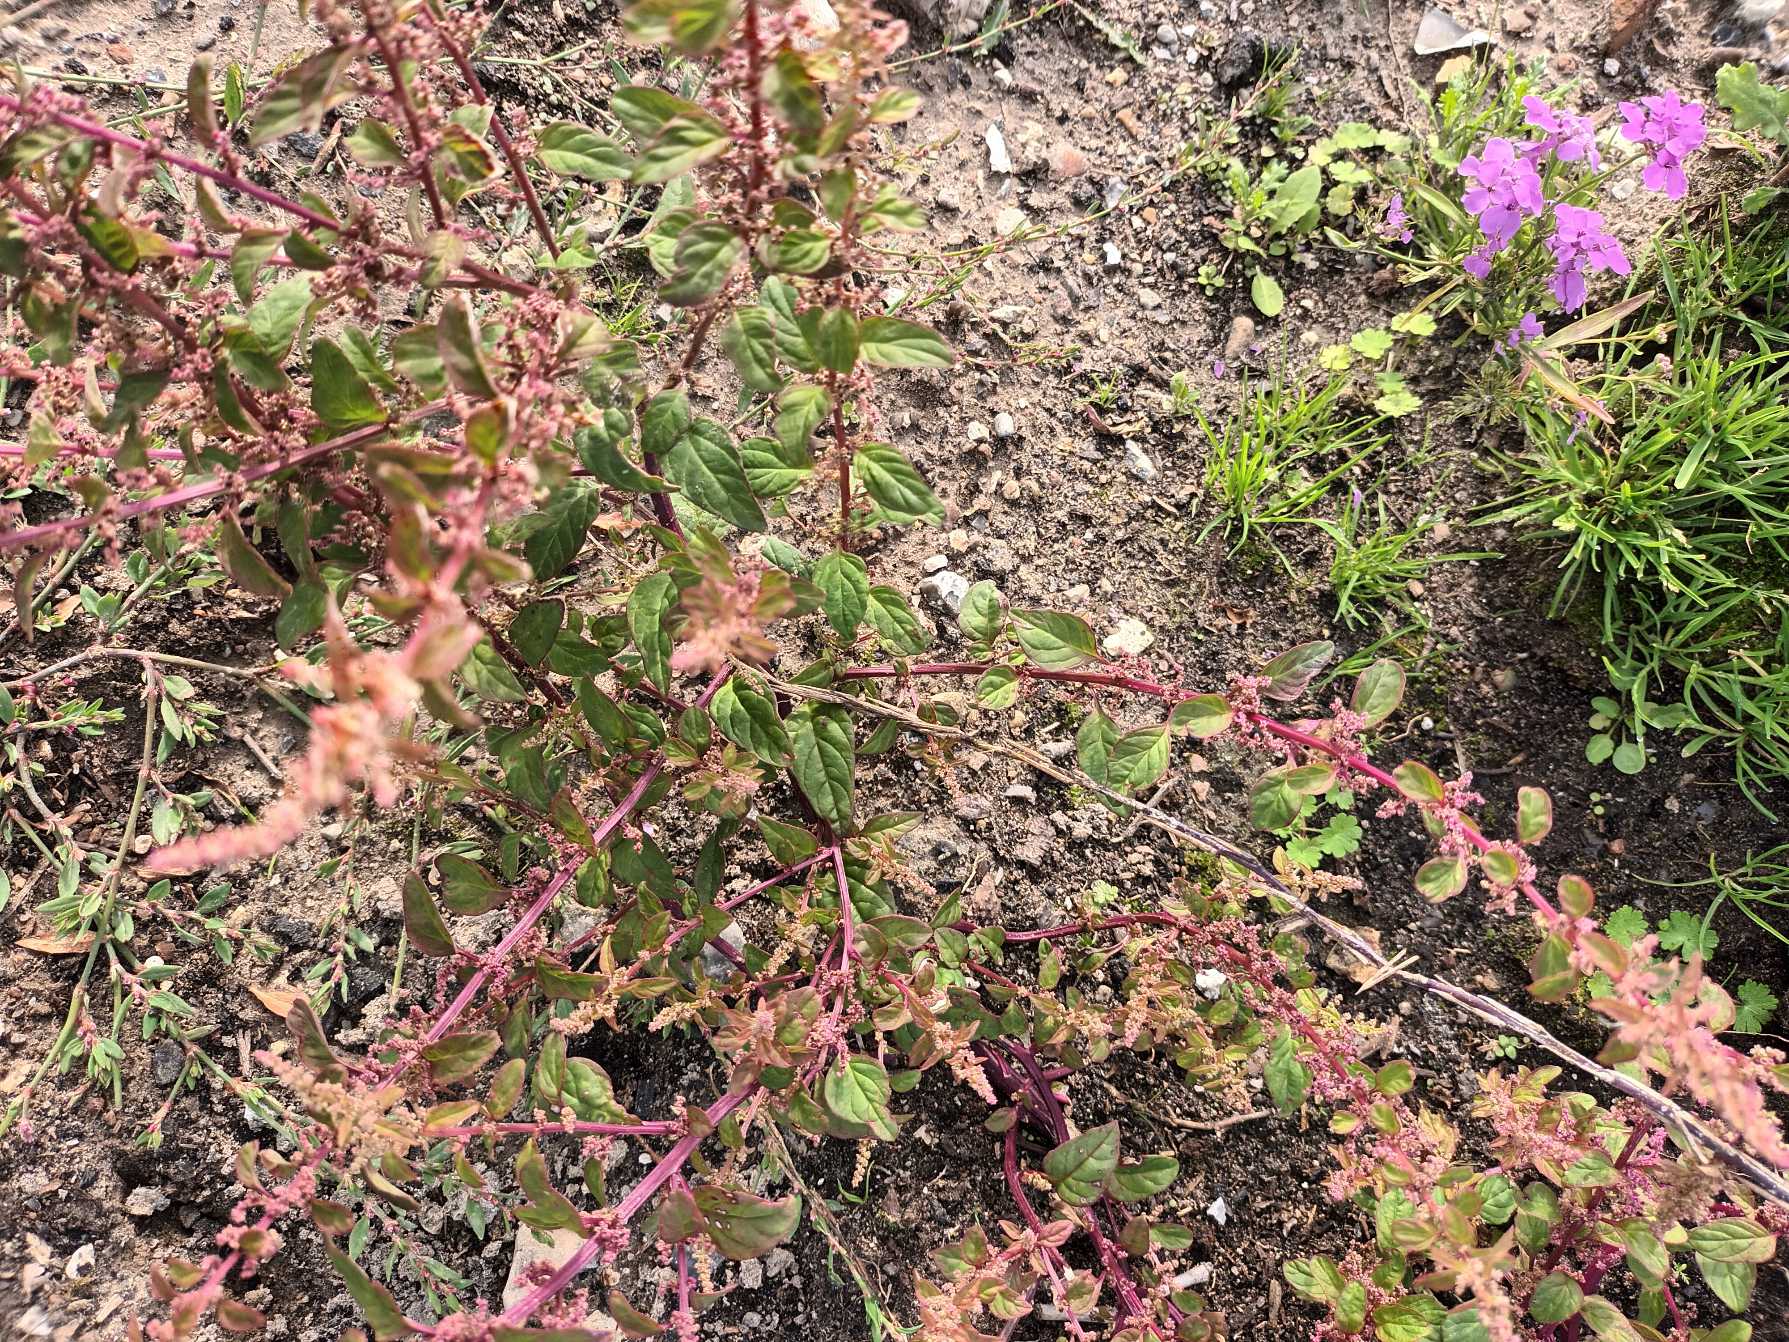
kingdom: Plantae
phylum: Tracheophyta
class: Magnoliopsida
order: Caryophyllales
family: Amaranthaceae
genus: Lipandra
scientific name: Lipandra polysperma
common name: Mangefrøet gåsefod
